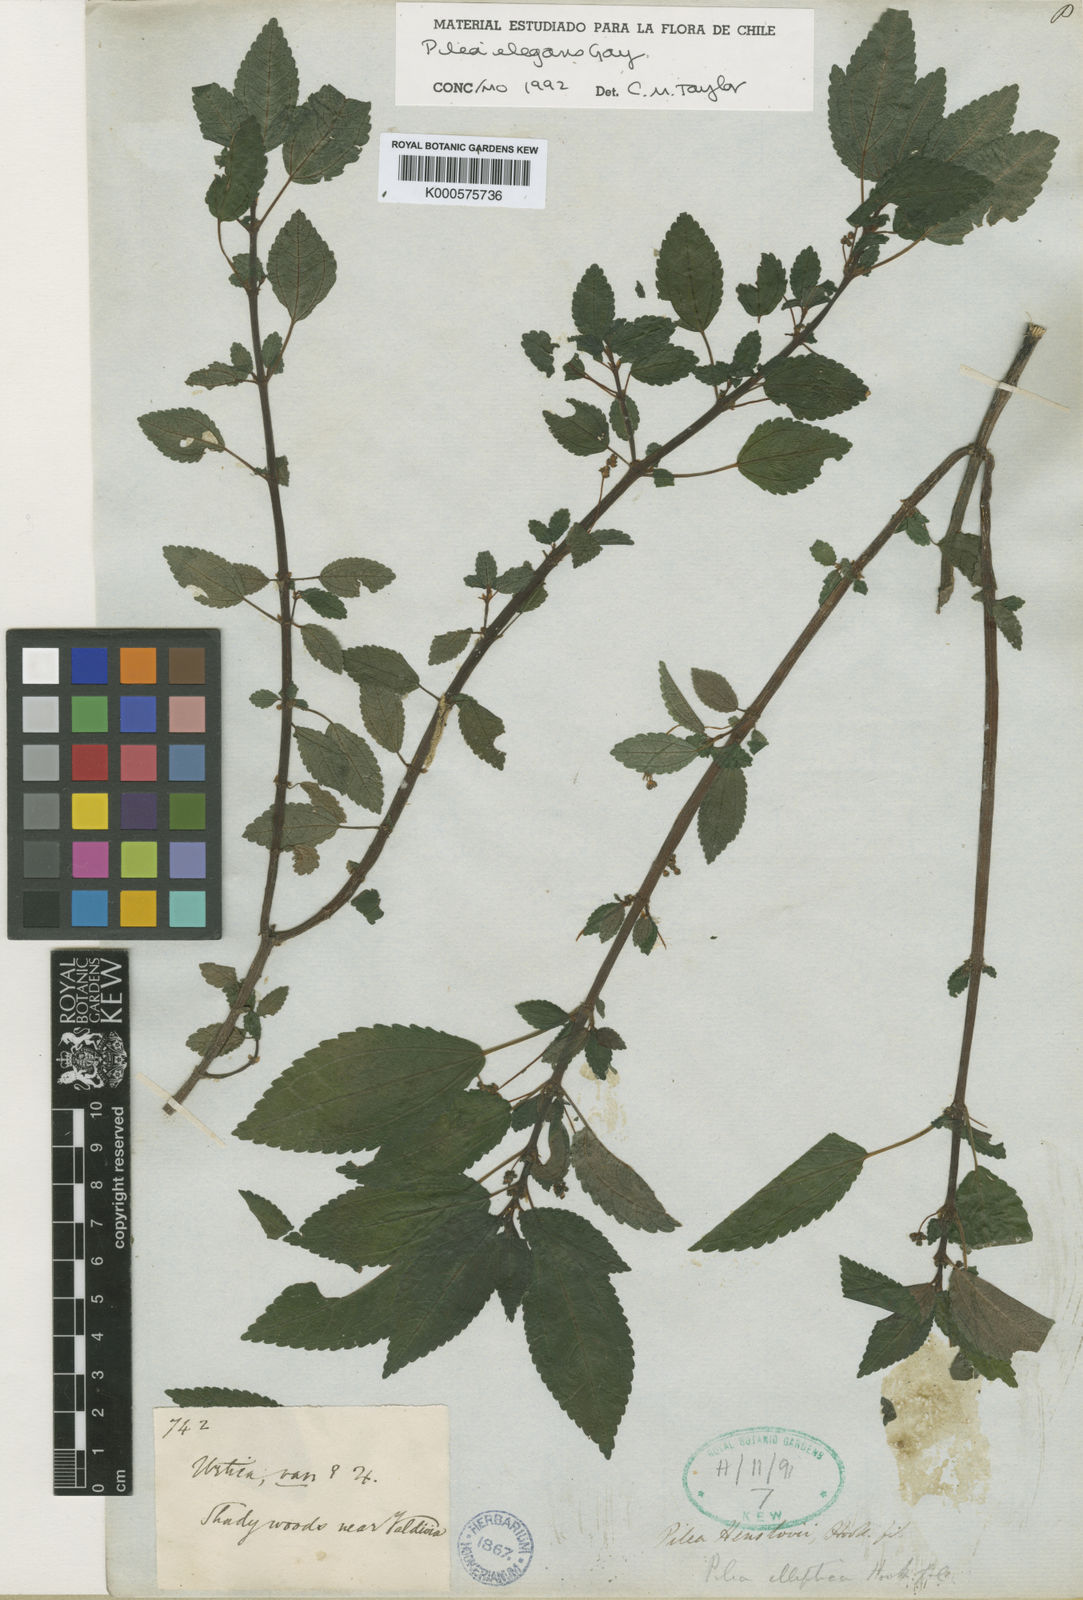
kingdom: Plantae
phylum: Tracheophyta
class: Magnoliopsida
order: Rosales
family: Urticaceae
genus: Pilea
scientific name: Pilea elegans
